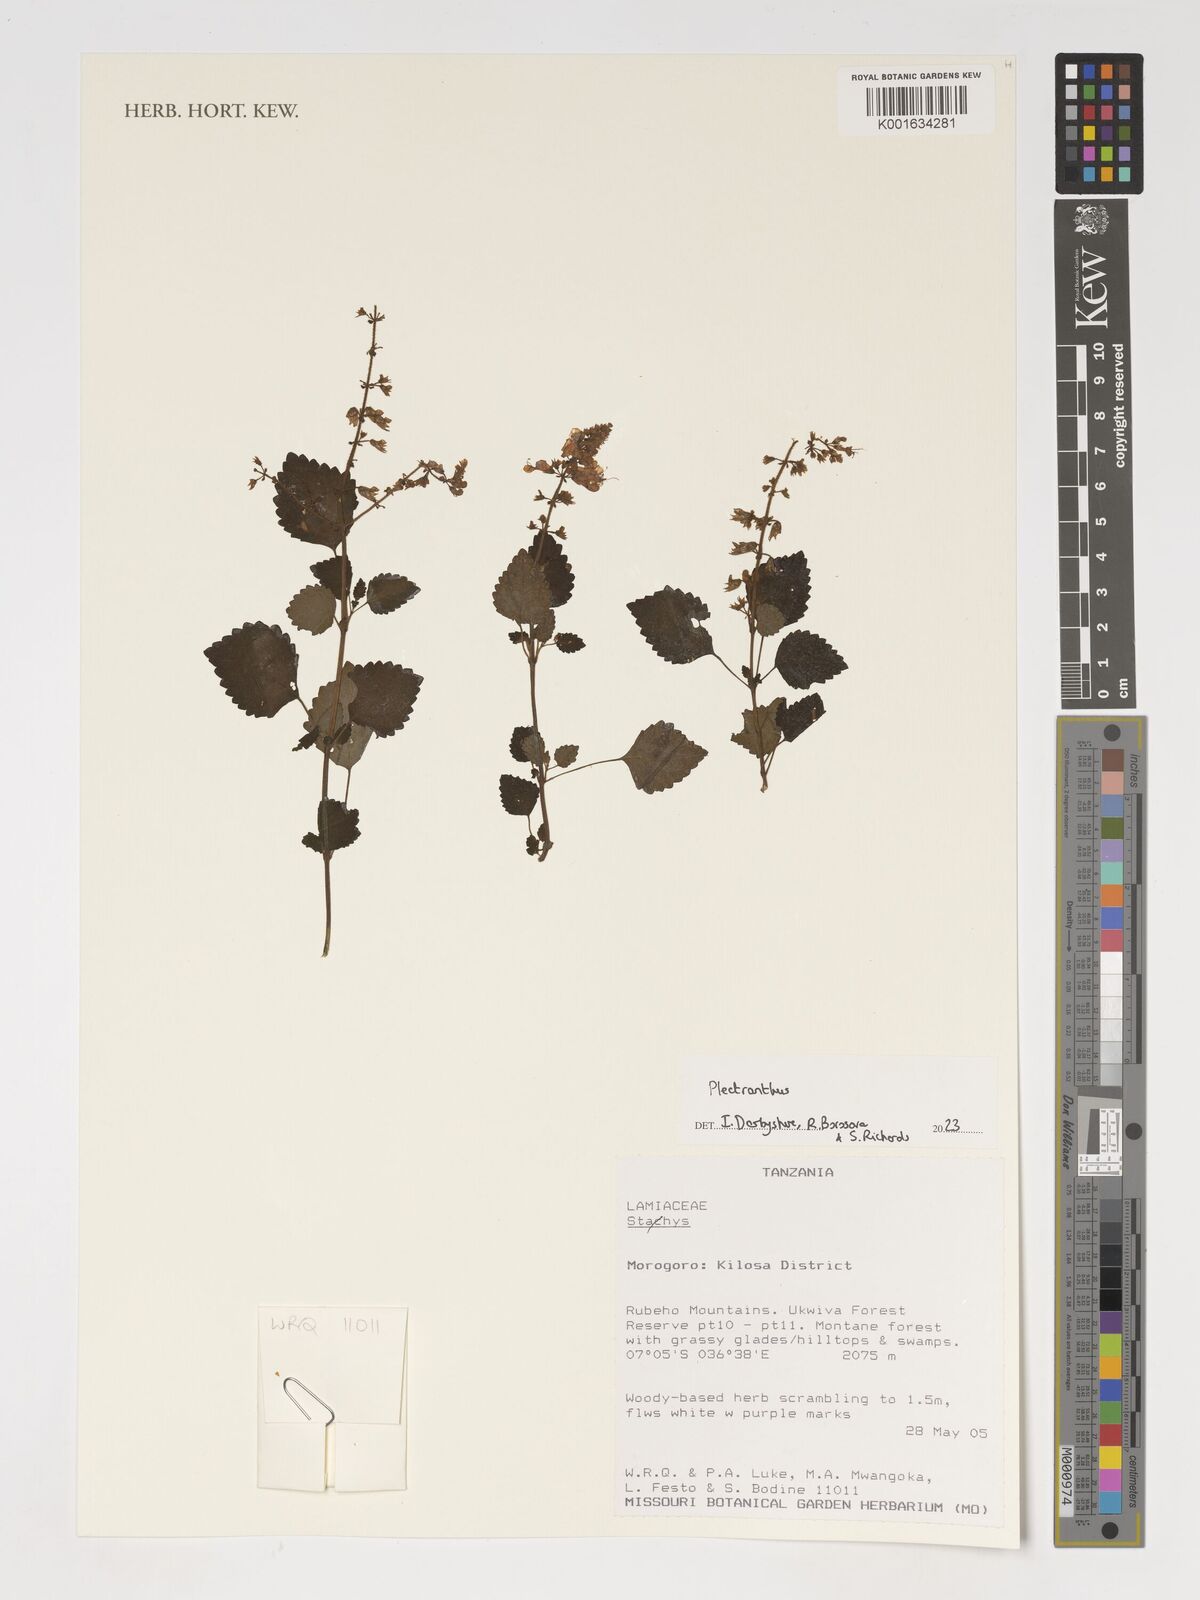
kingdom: Plantae
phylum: Tracheophyta
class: Magnoliopsida
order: Lamiales
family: Lamiaceae
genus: Plectranthus
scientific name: Plectranthus
